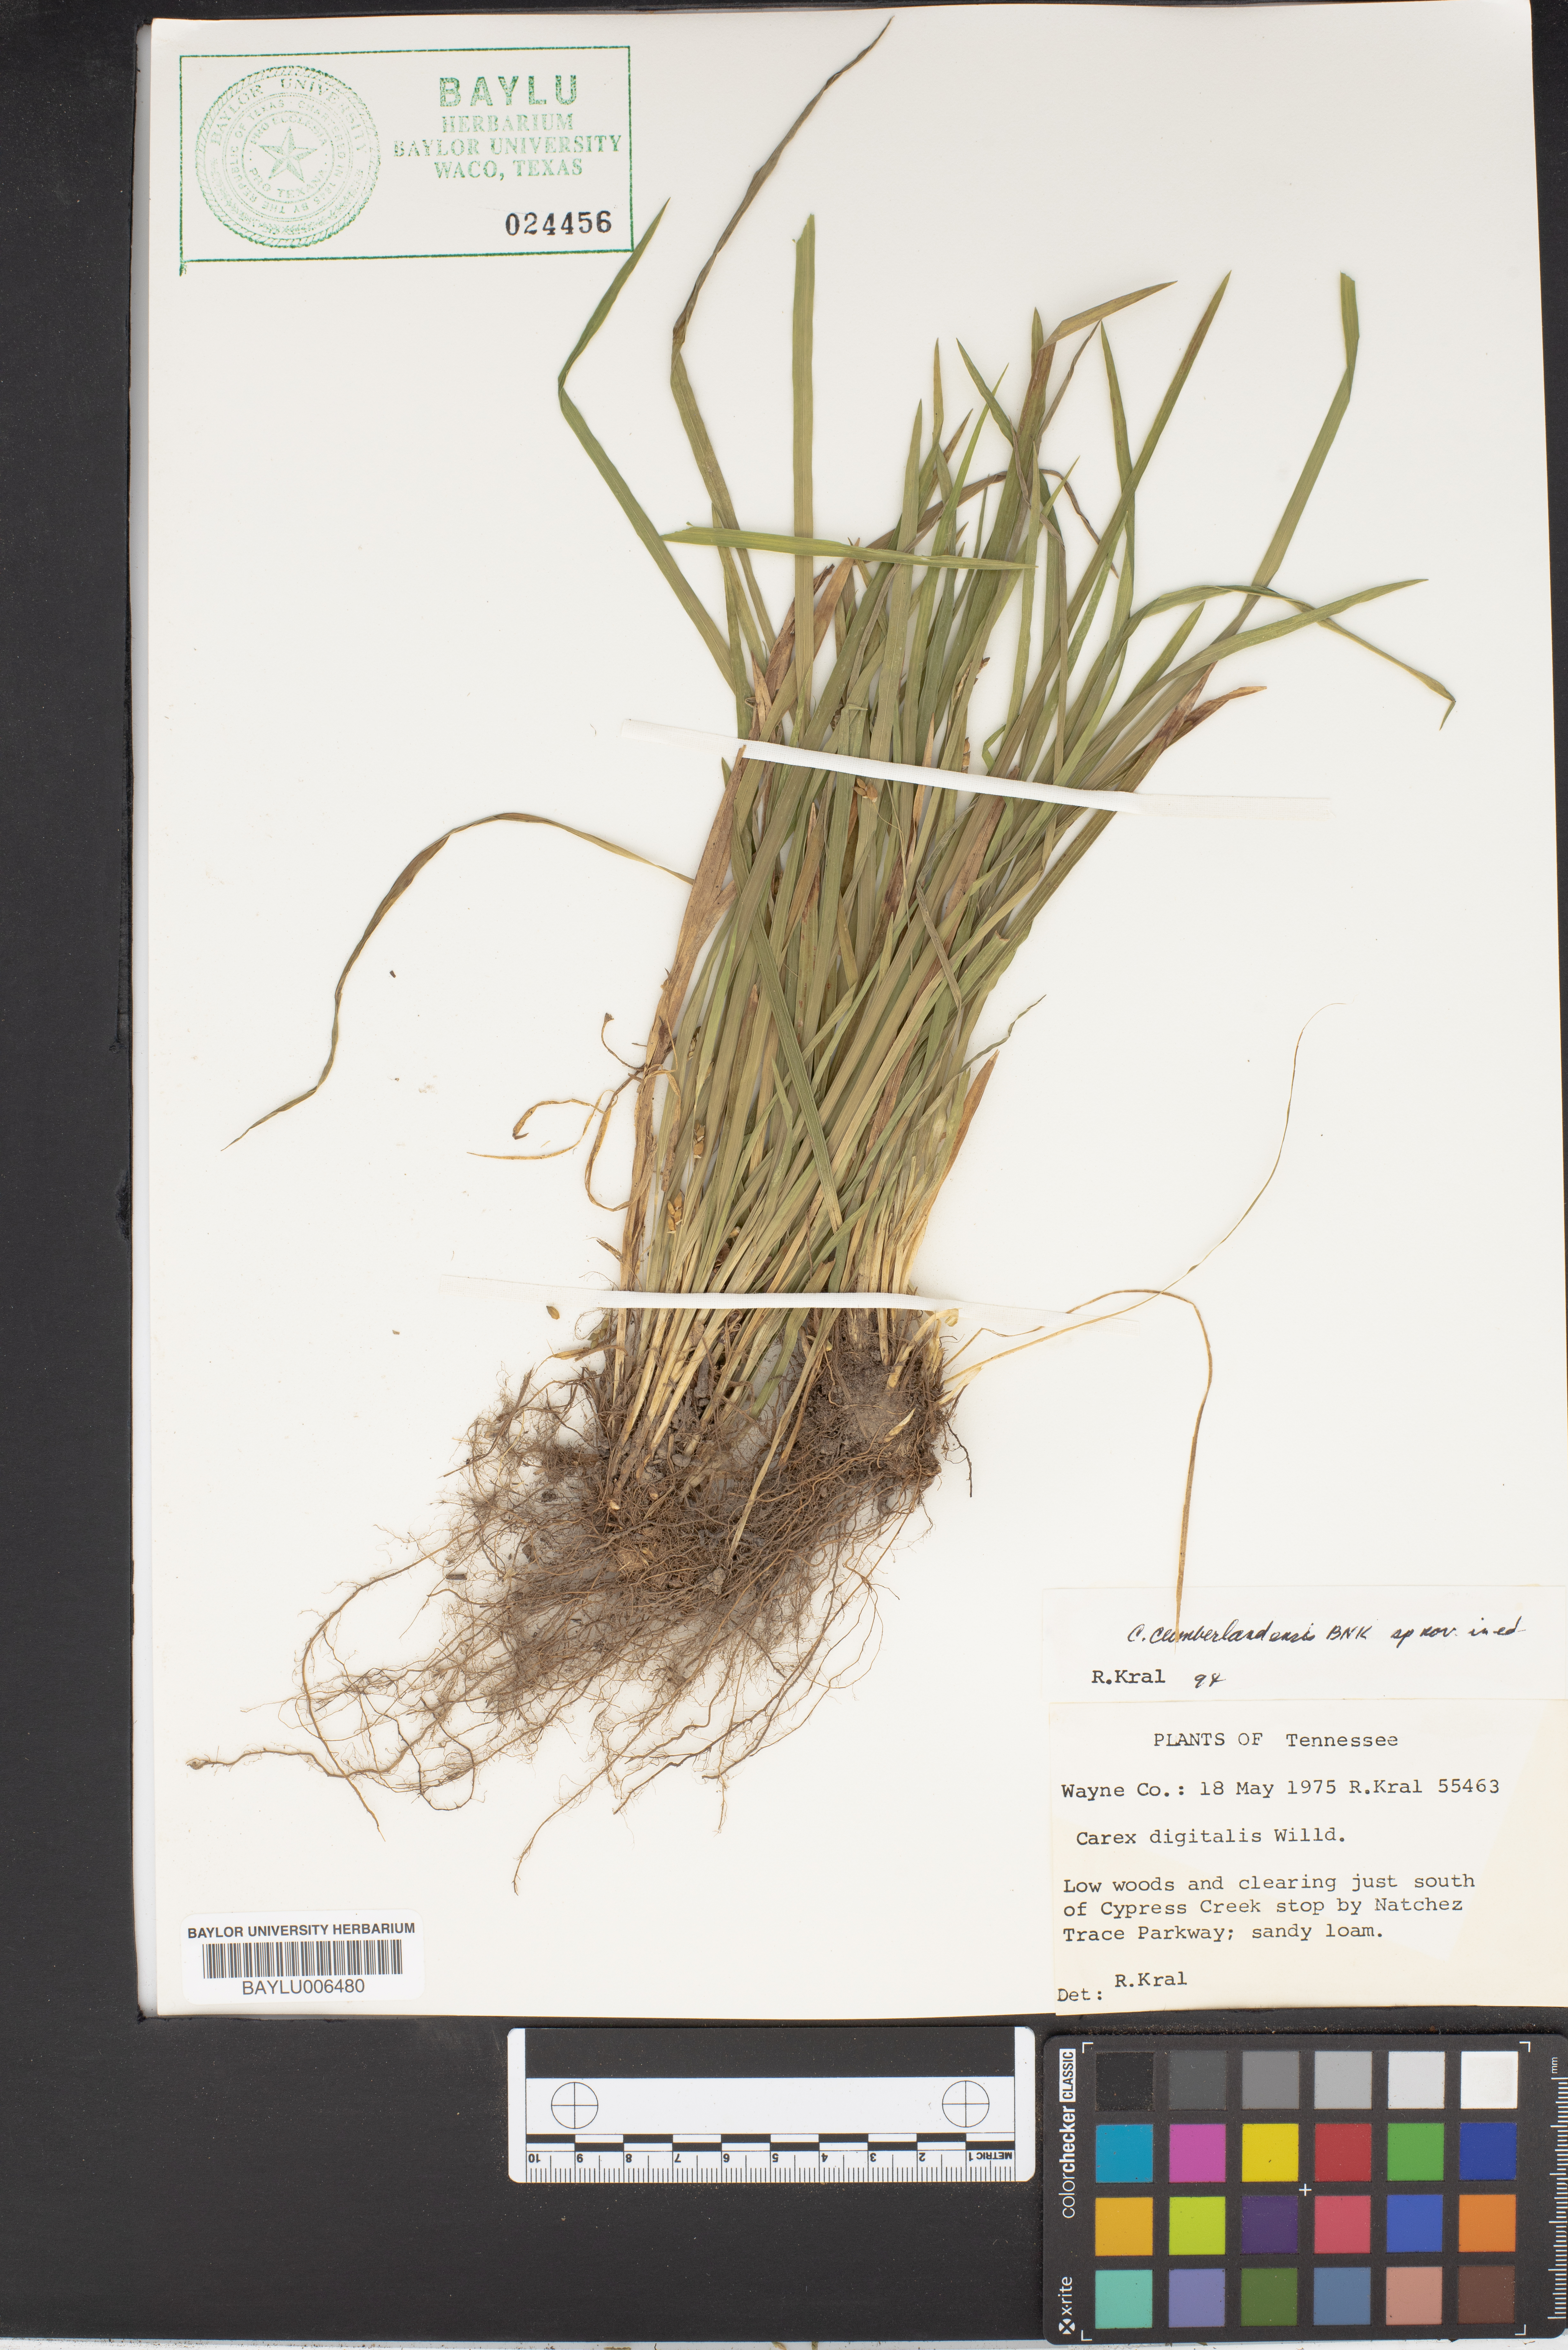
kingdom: Plantae
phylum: Tracheophyta
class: Liliopsida
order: Poales
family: Cyperaceae
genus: Carex
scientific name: Carex digitalis
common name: Slender wood sedge
